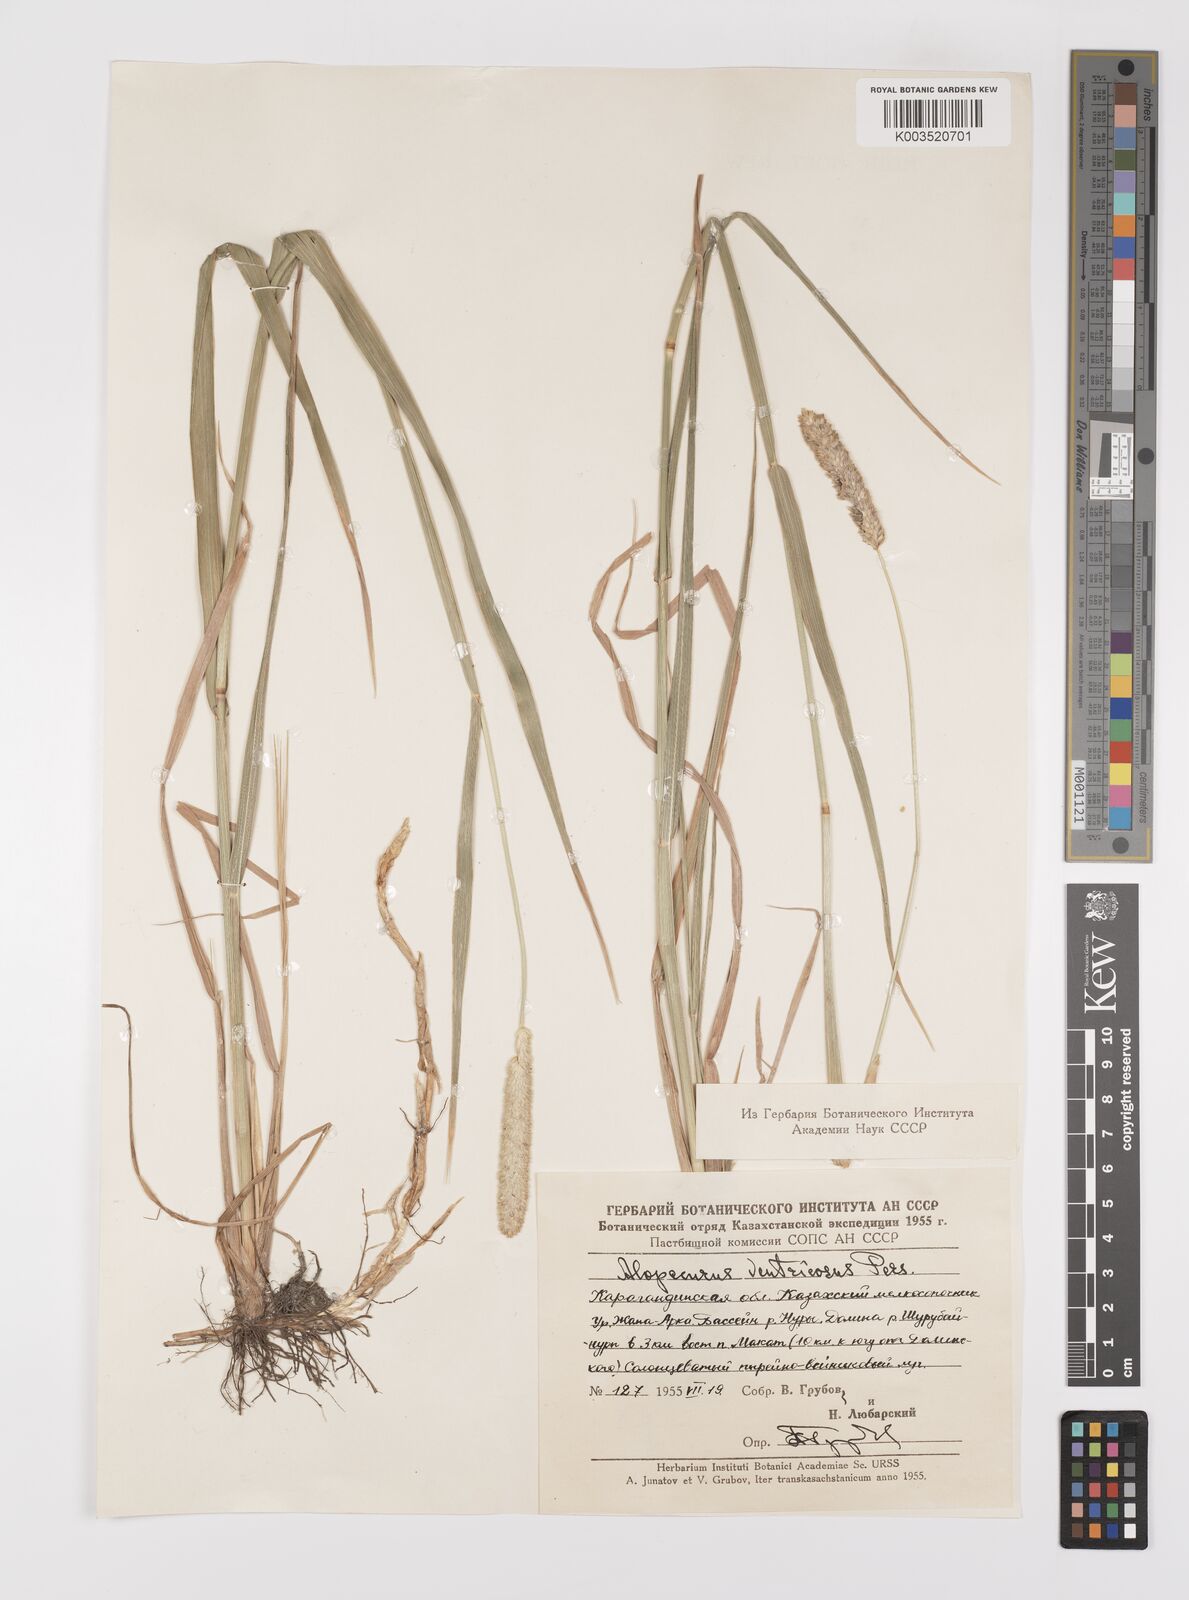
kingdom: Plantae
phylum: Tracheophyta
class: Liliopsida
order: Poales
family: Poaceae
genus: Alopecurus
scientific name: Alopecurus arundinaceus
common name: Creeping meadow foxtail
